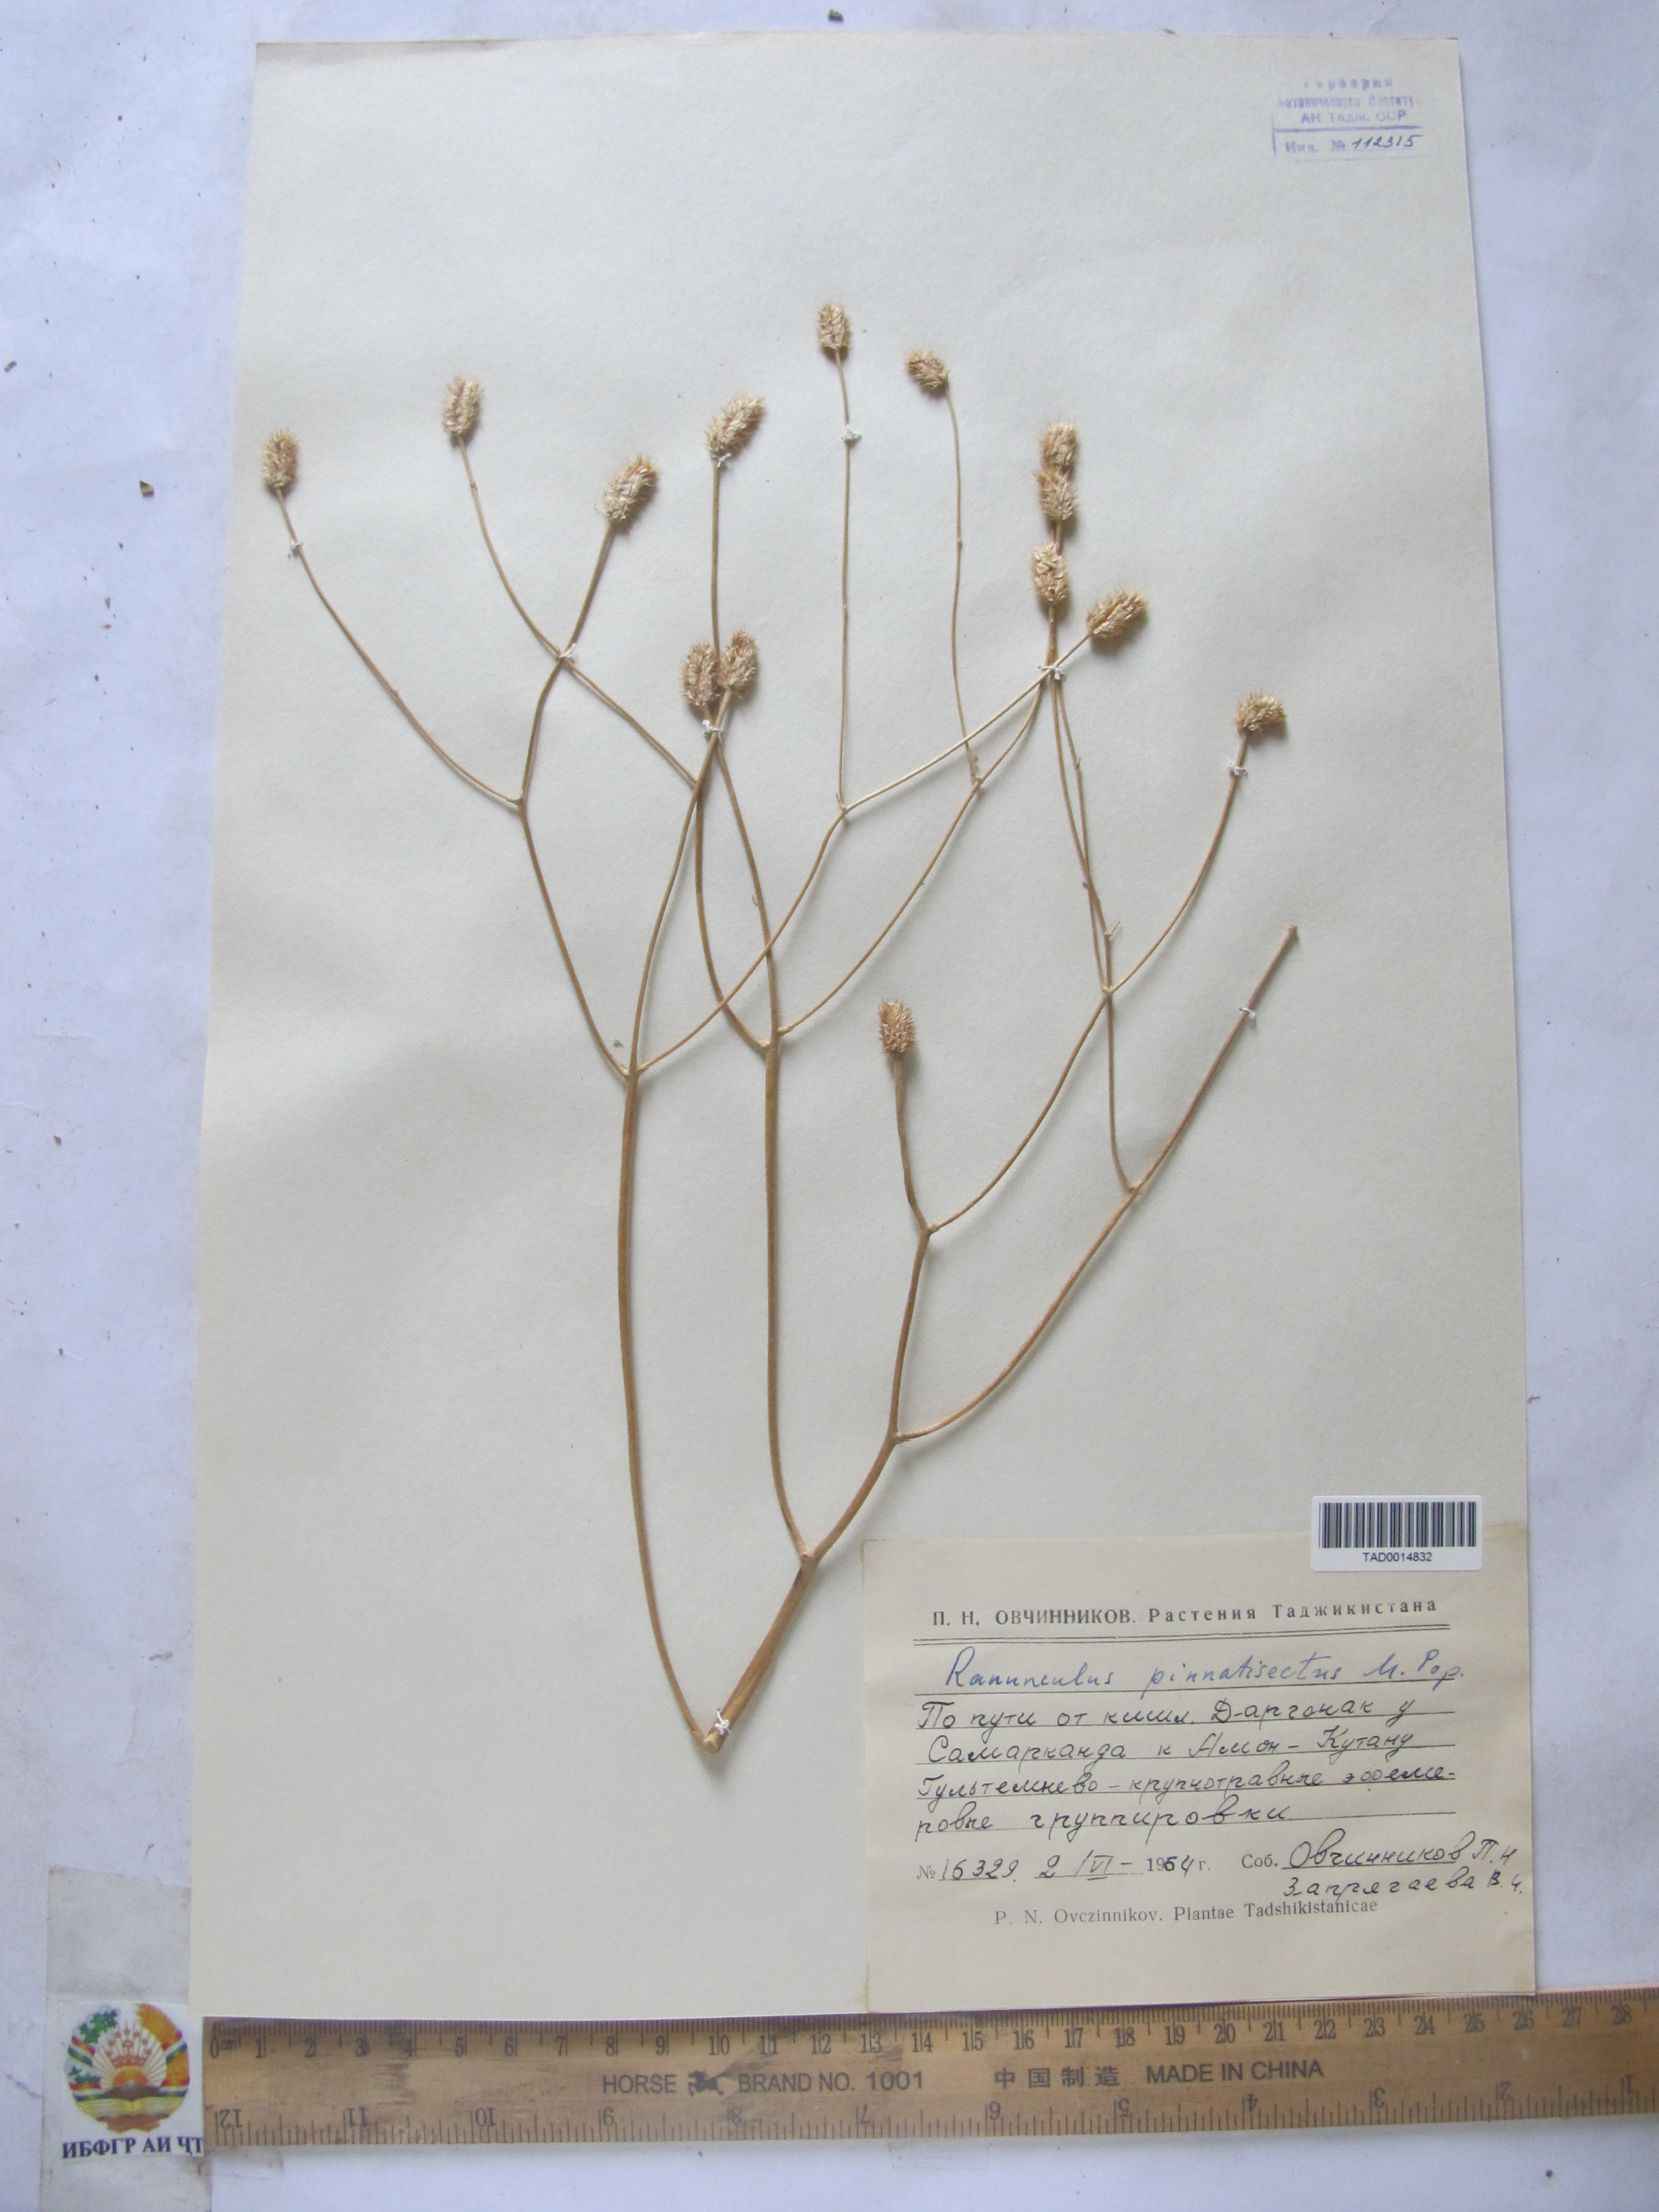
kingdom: Plantae
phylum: Tracheophyta
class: Magnoliopsida
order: Ranunculales
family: Ranunculaceae
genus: Ranunculus
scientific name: Ranunculus pinnatisectus
